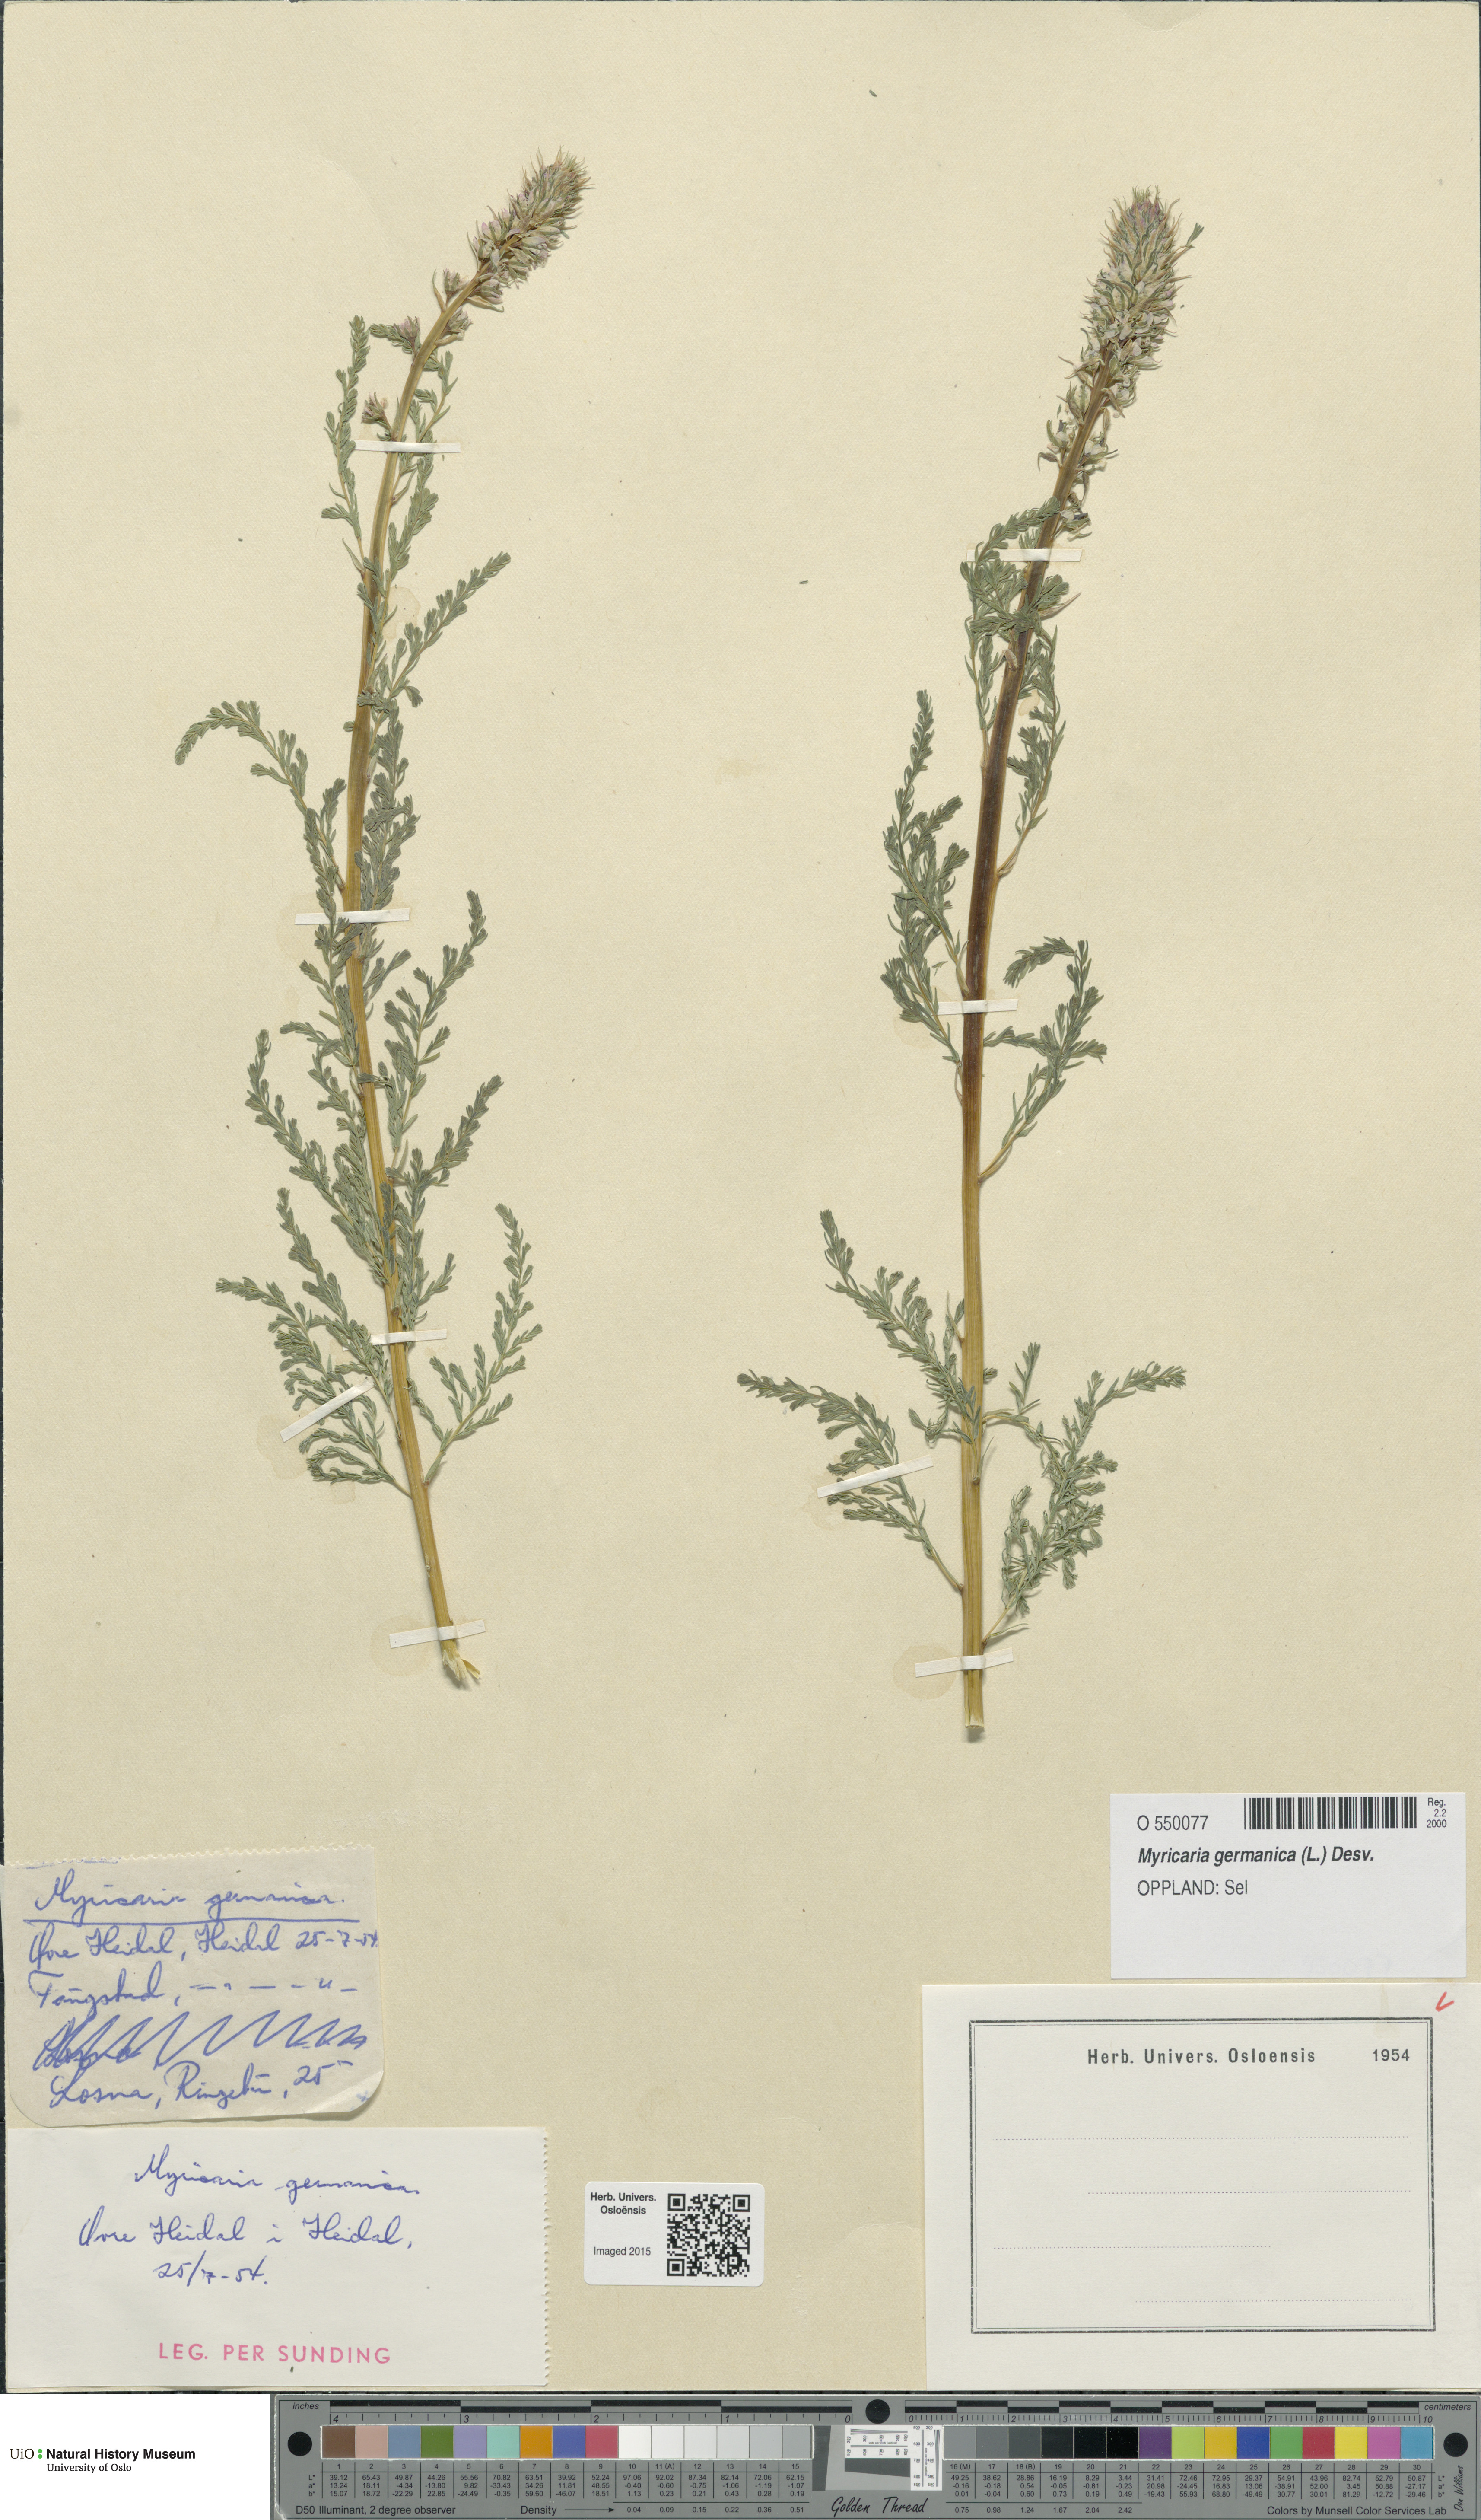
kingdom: Plantae
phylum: Tracheophyta
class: Magnoliopsida
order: Caryophyllales
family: Tamaricaceae
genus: Myricaria
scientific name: Myricaria germanica
